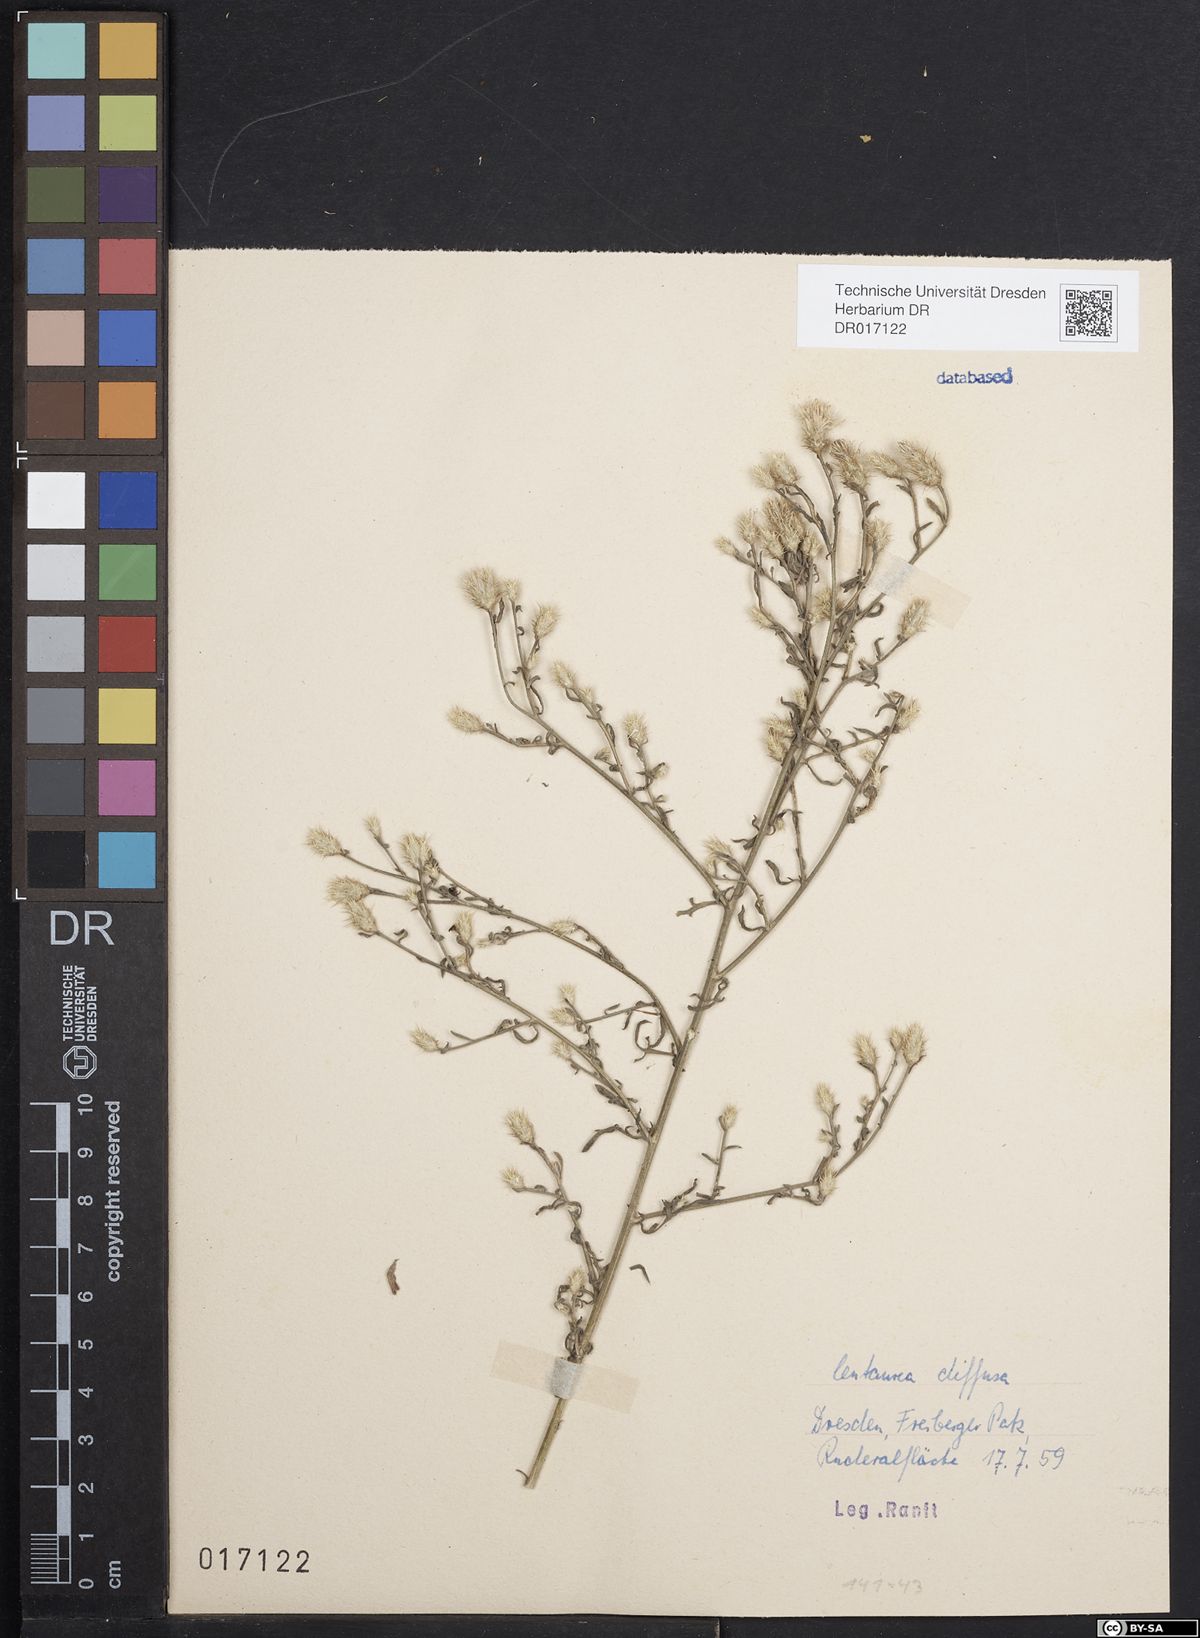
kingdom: Plantae
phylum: Tracheophyta
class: Magnoliopsida
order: Asterales
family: Asteraceae
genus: Centaurea
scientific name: Centaurea diffusa
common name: Diffuse knapweed
